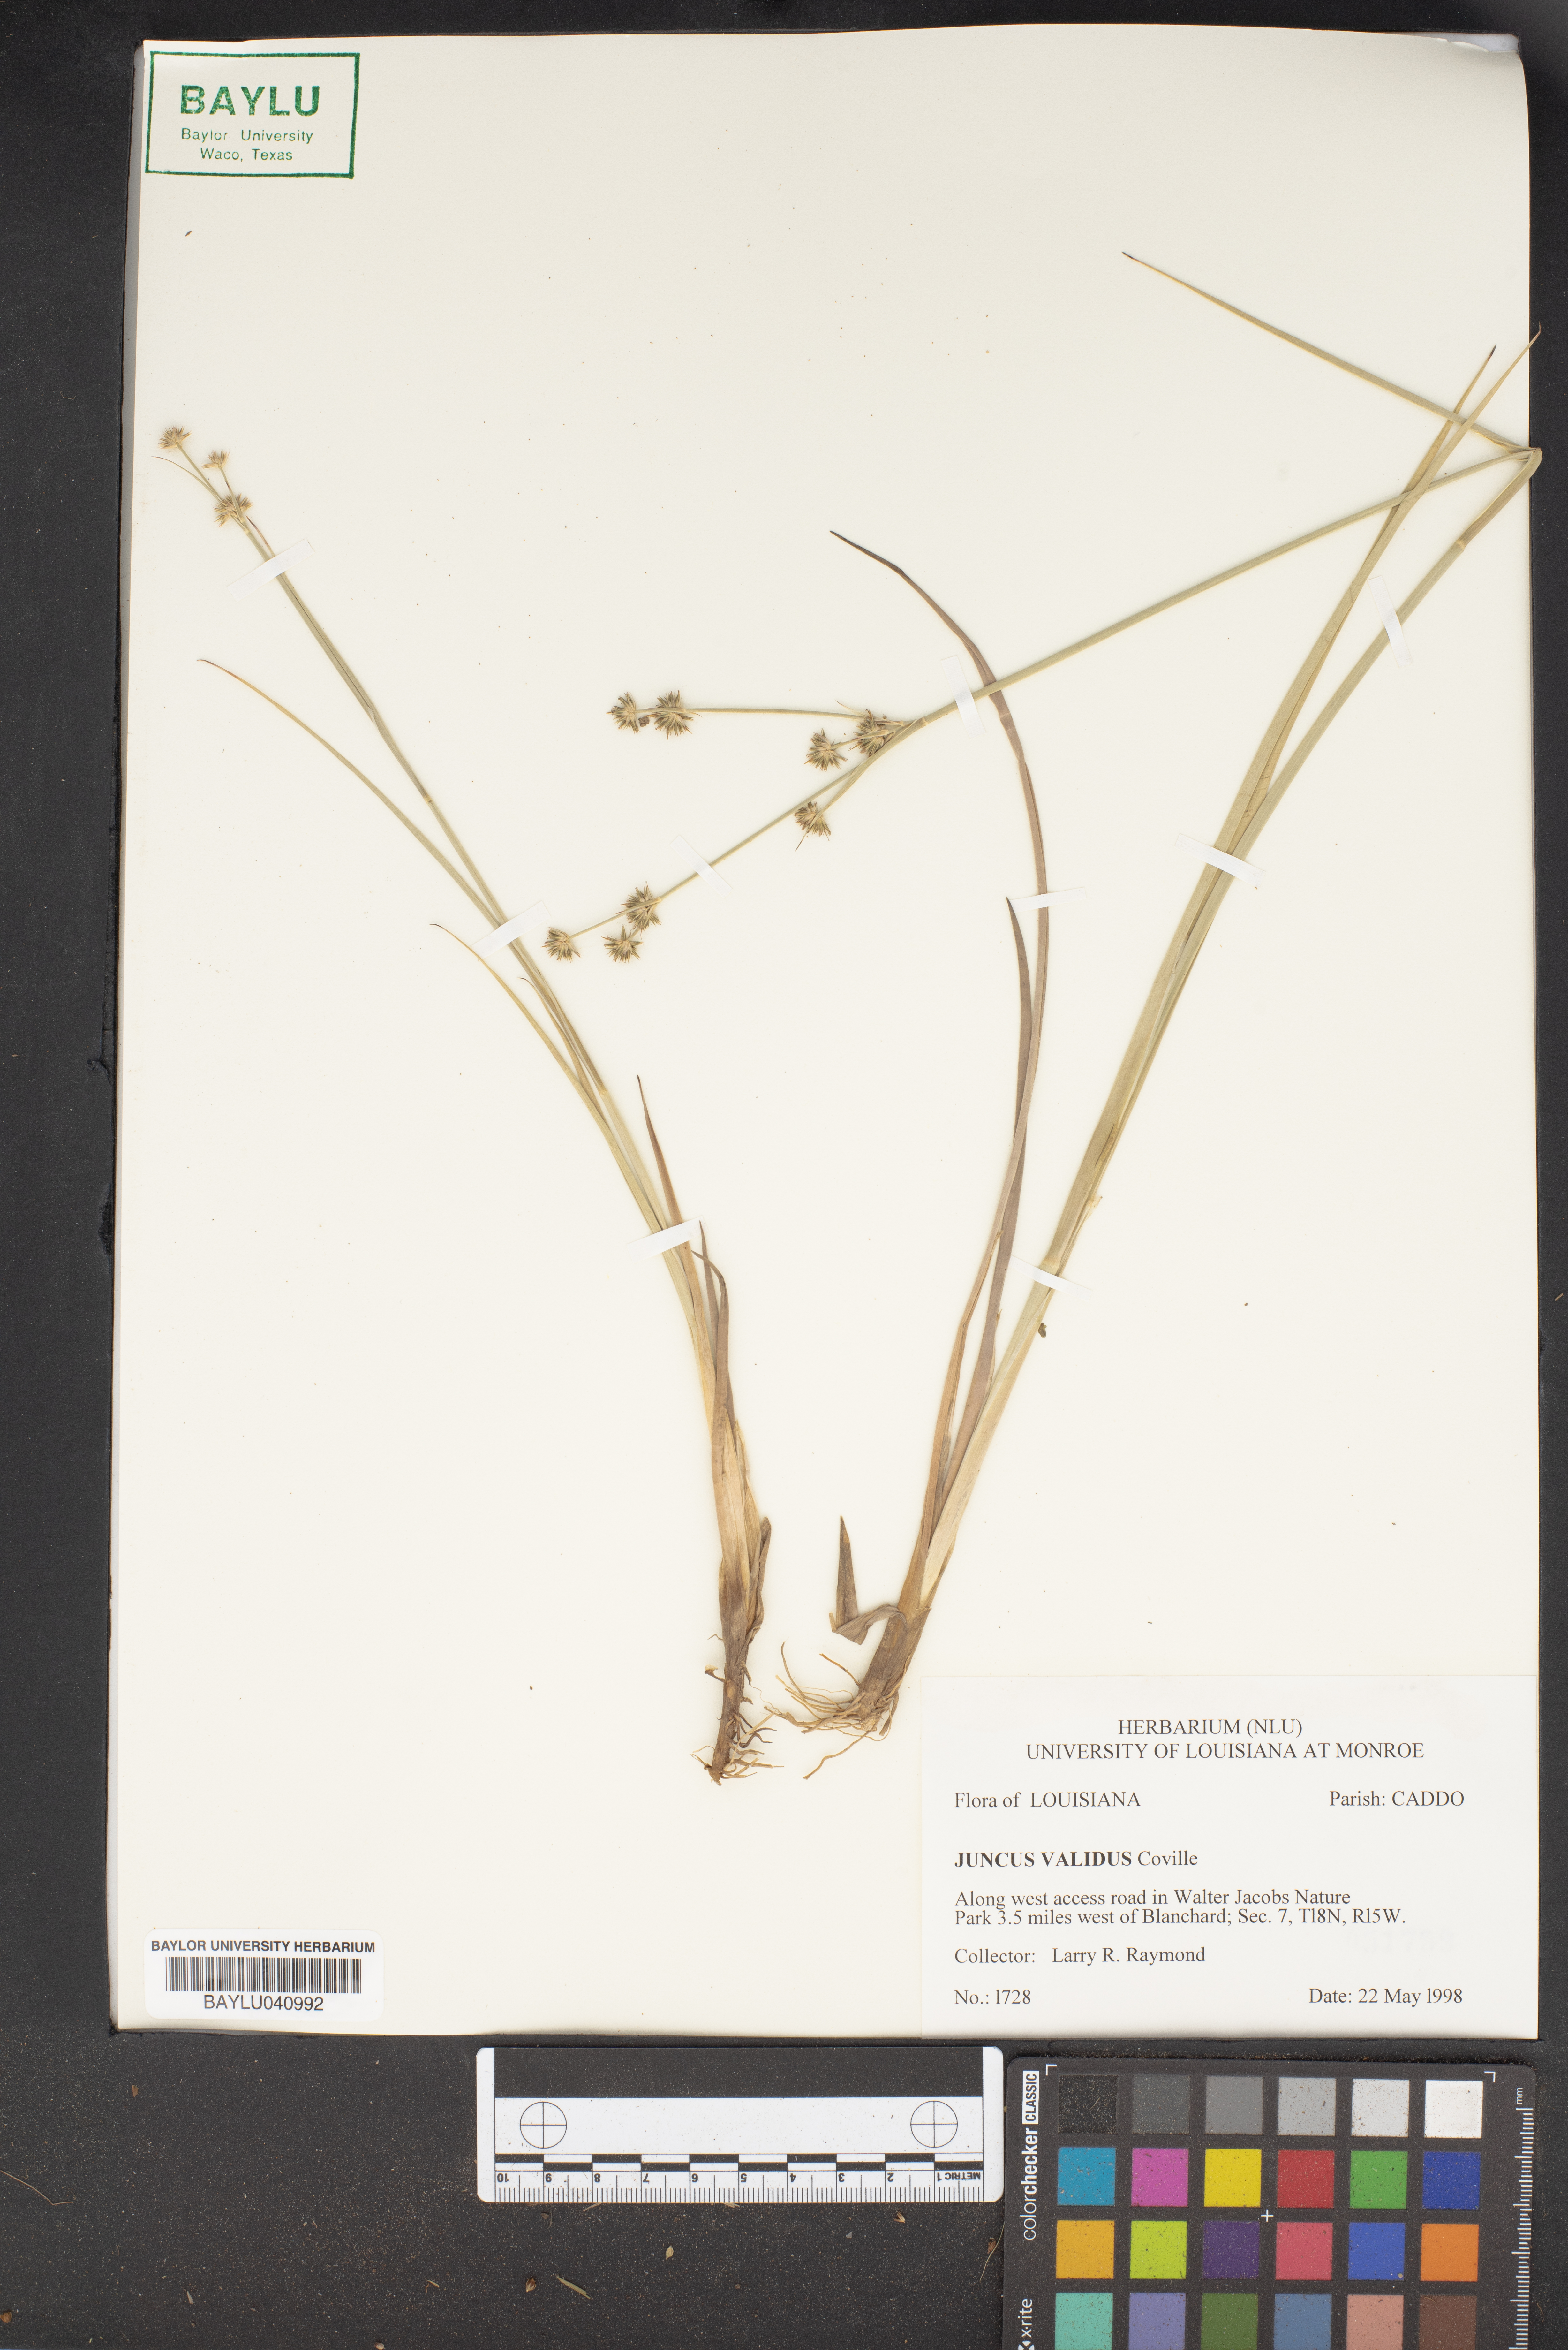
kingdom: Plantae
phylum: Tracheophyta
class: Liliopsida
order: Poales
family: Juncaceae
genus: Juncus
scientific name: Juncus validus
